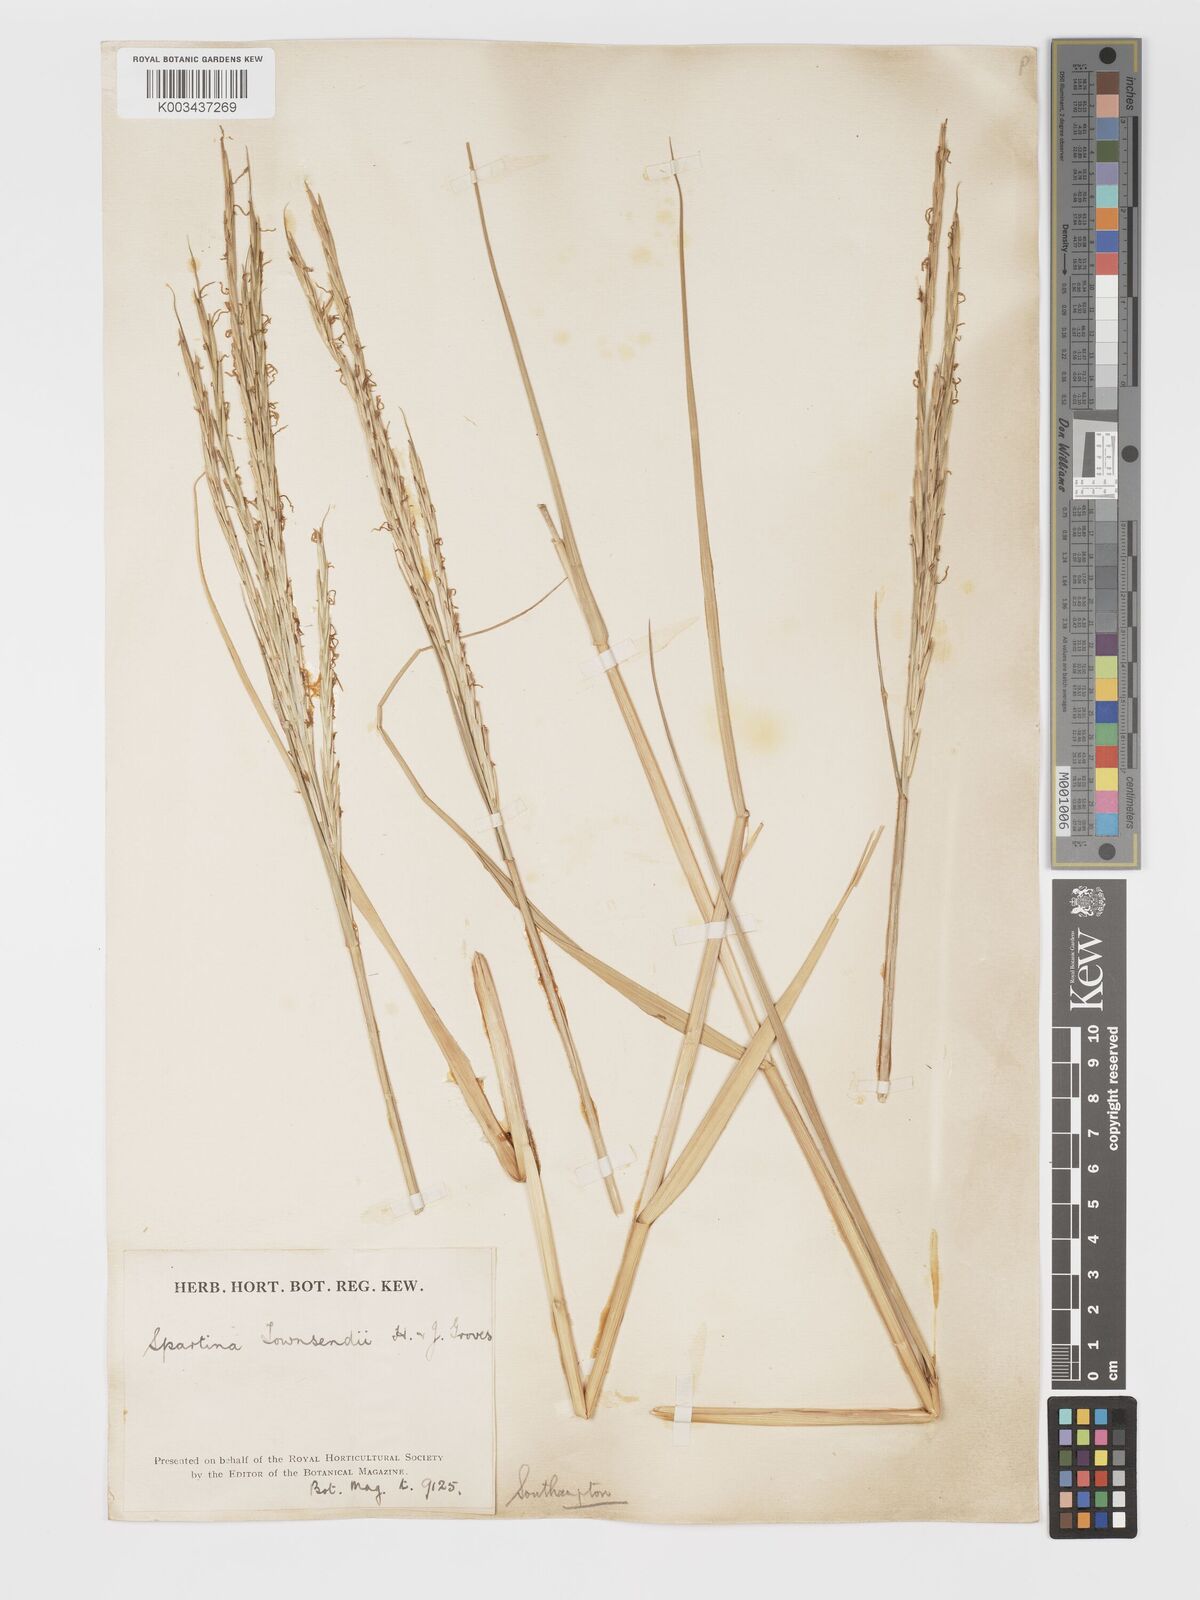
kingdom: Plantae
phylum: Tracheophyta
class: Liliopsida
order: Poales
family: Poaceae
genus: Sporobolus
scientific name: Sporobolus townsendii
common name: Townsend's cordgrass
